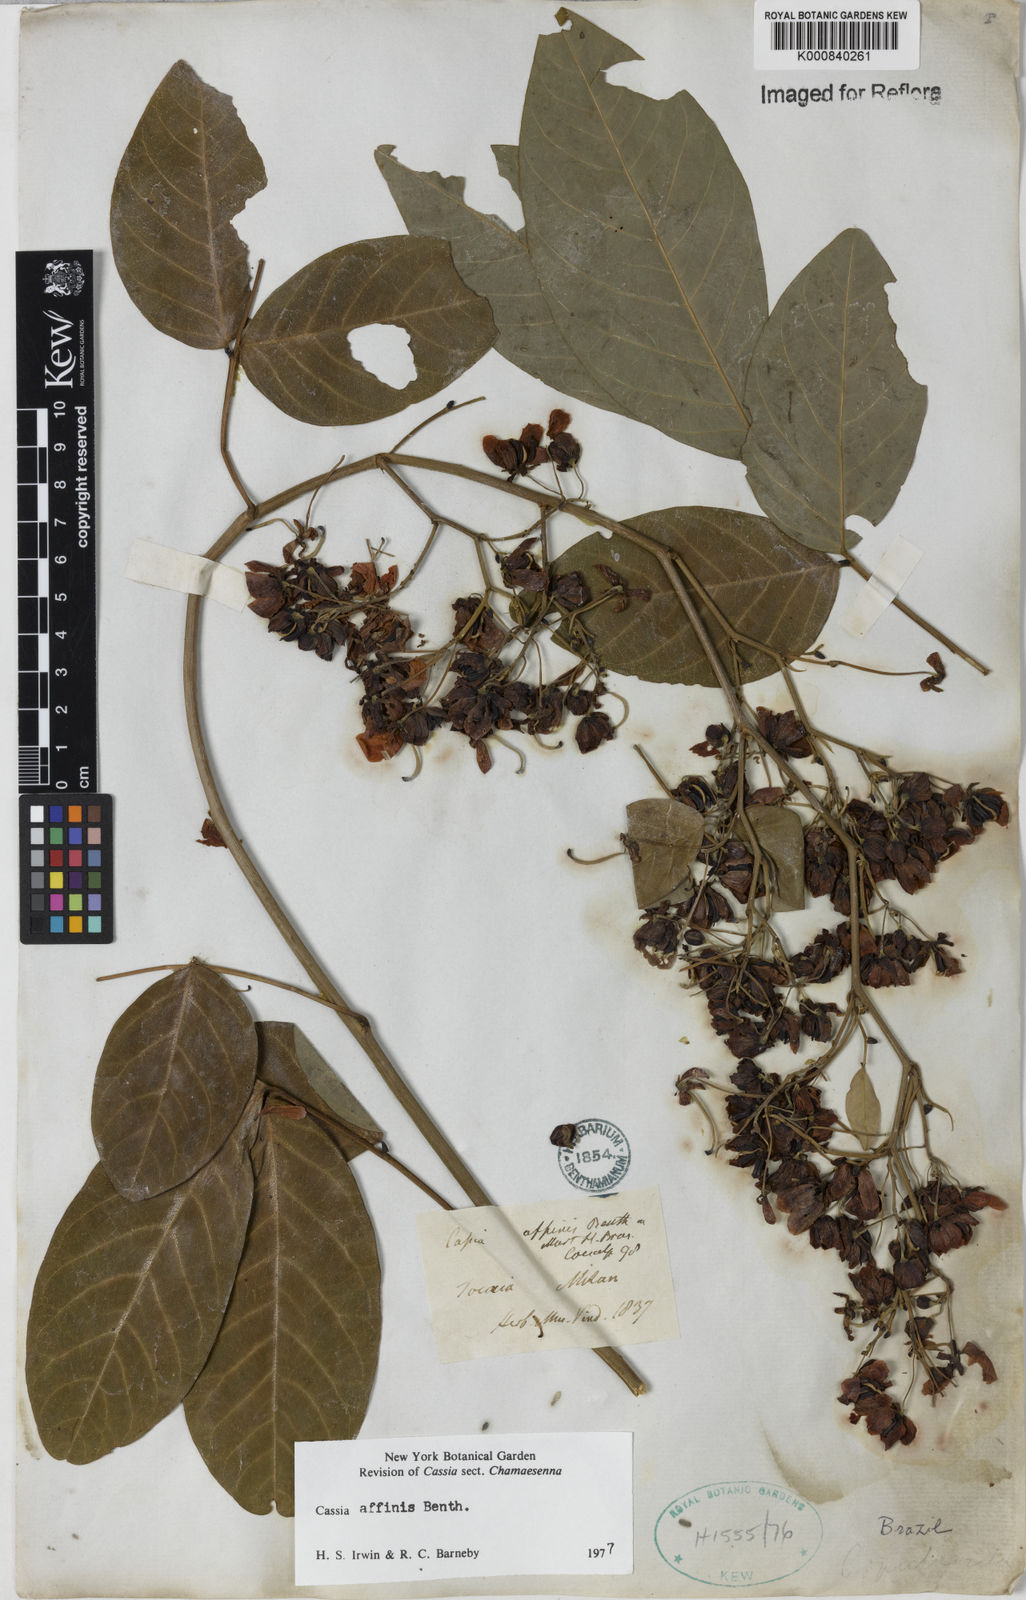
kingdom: Plantae
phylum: Tracheophyta
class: Magnoliopsida
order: Fabales
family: Fabaceae
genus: Senna
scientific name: Senna affinis
